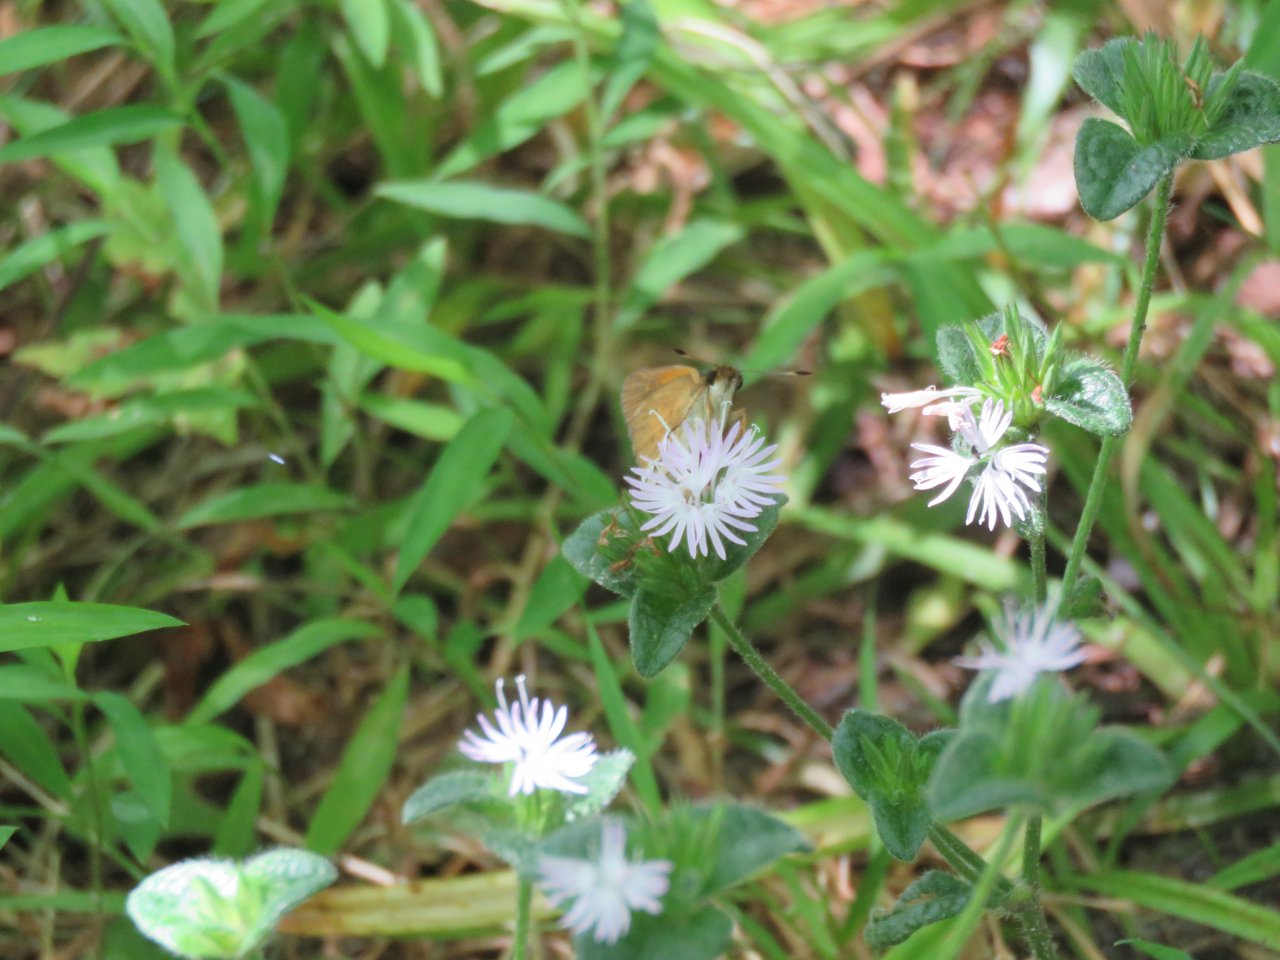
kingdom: Animalia
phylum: Arthropoda
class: Insecta
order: Lepidoptera
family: Hesperiidae
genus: Poanes
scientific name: Poanes viator
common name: Broad-winged Skipper
